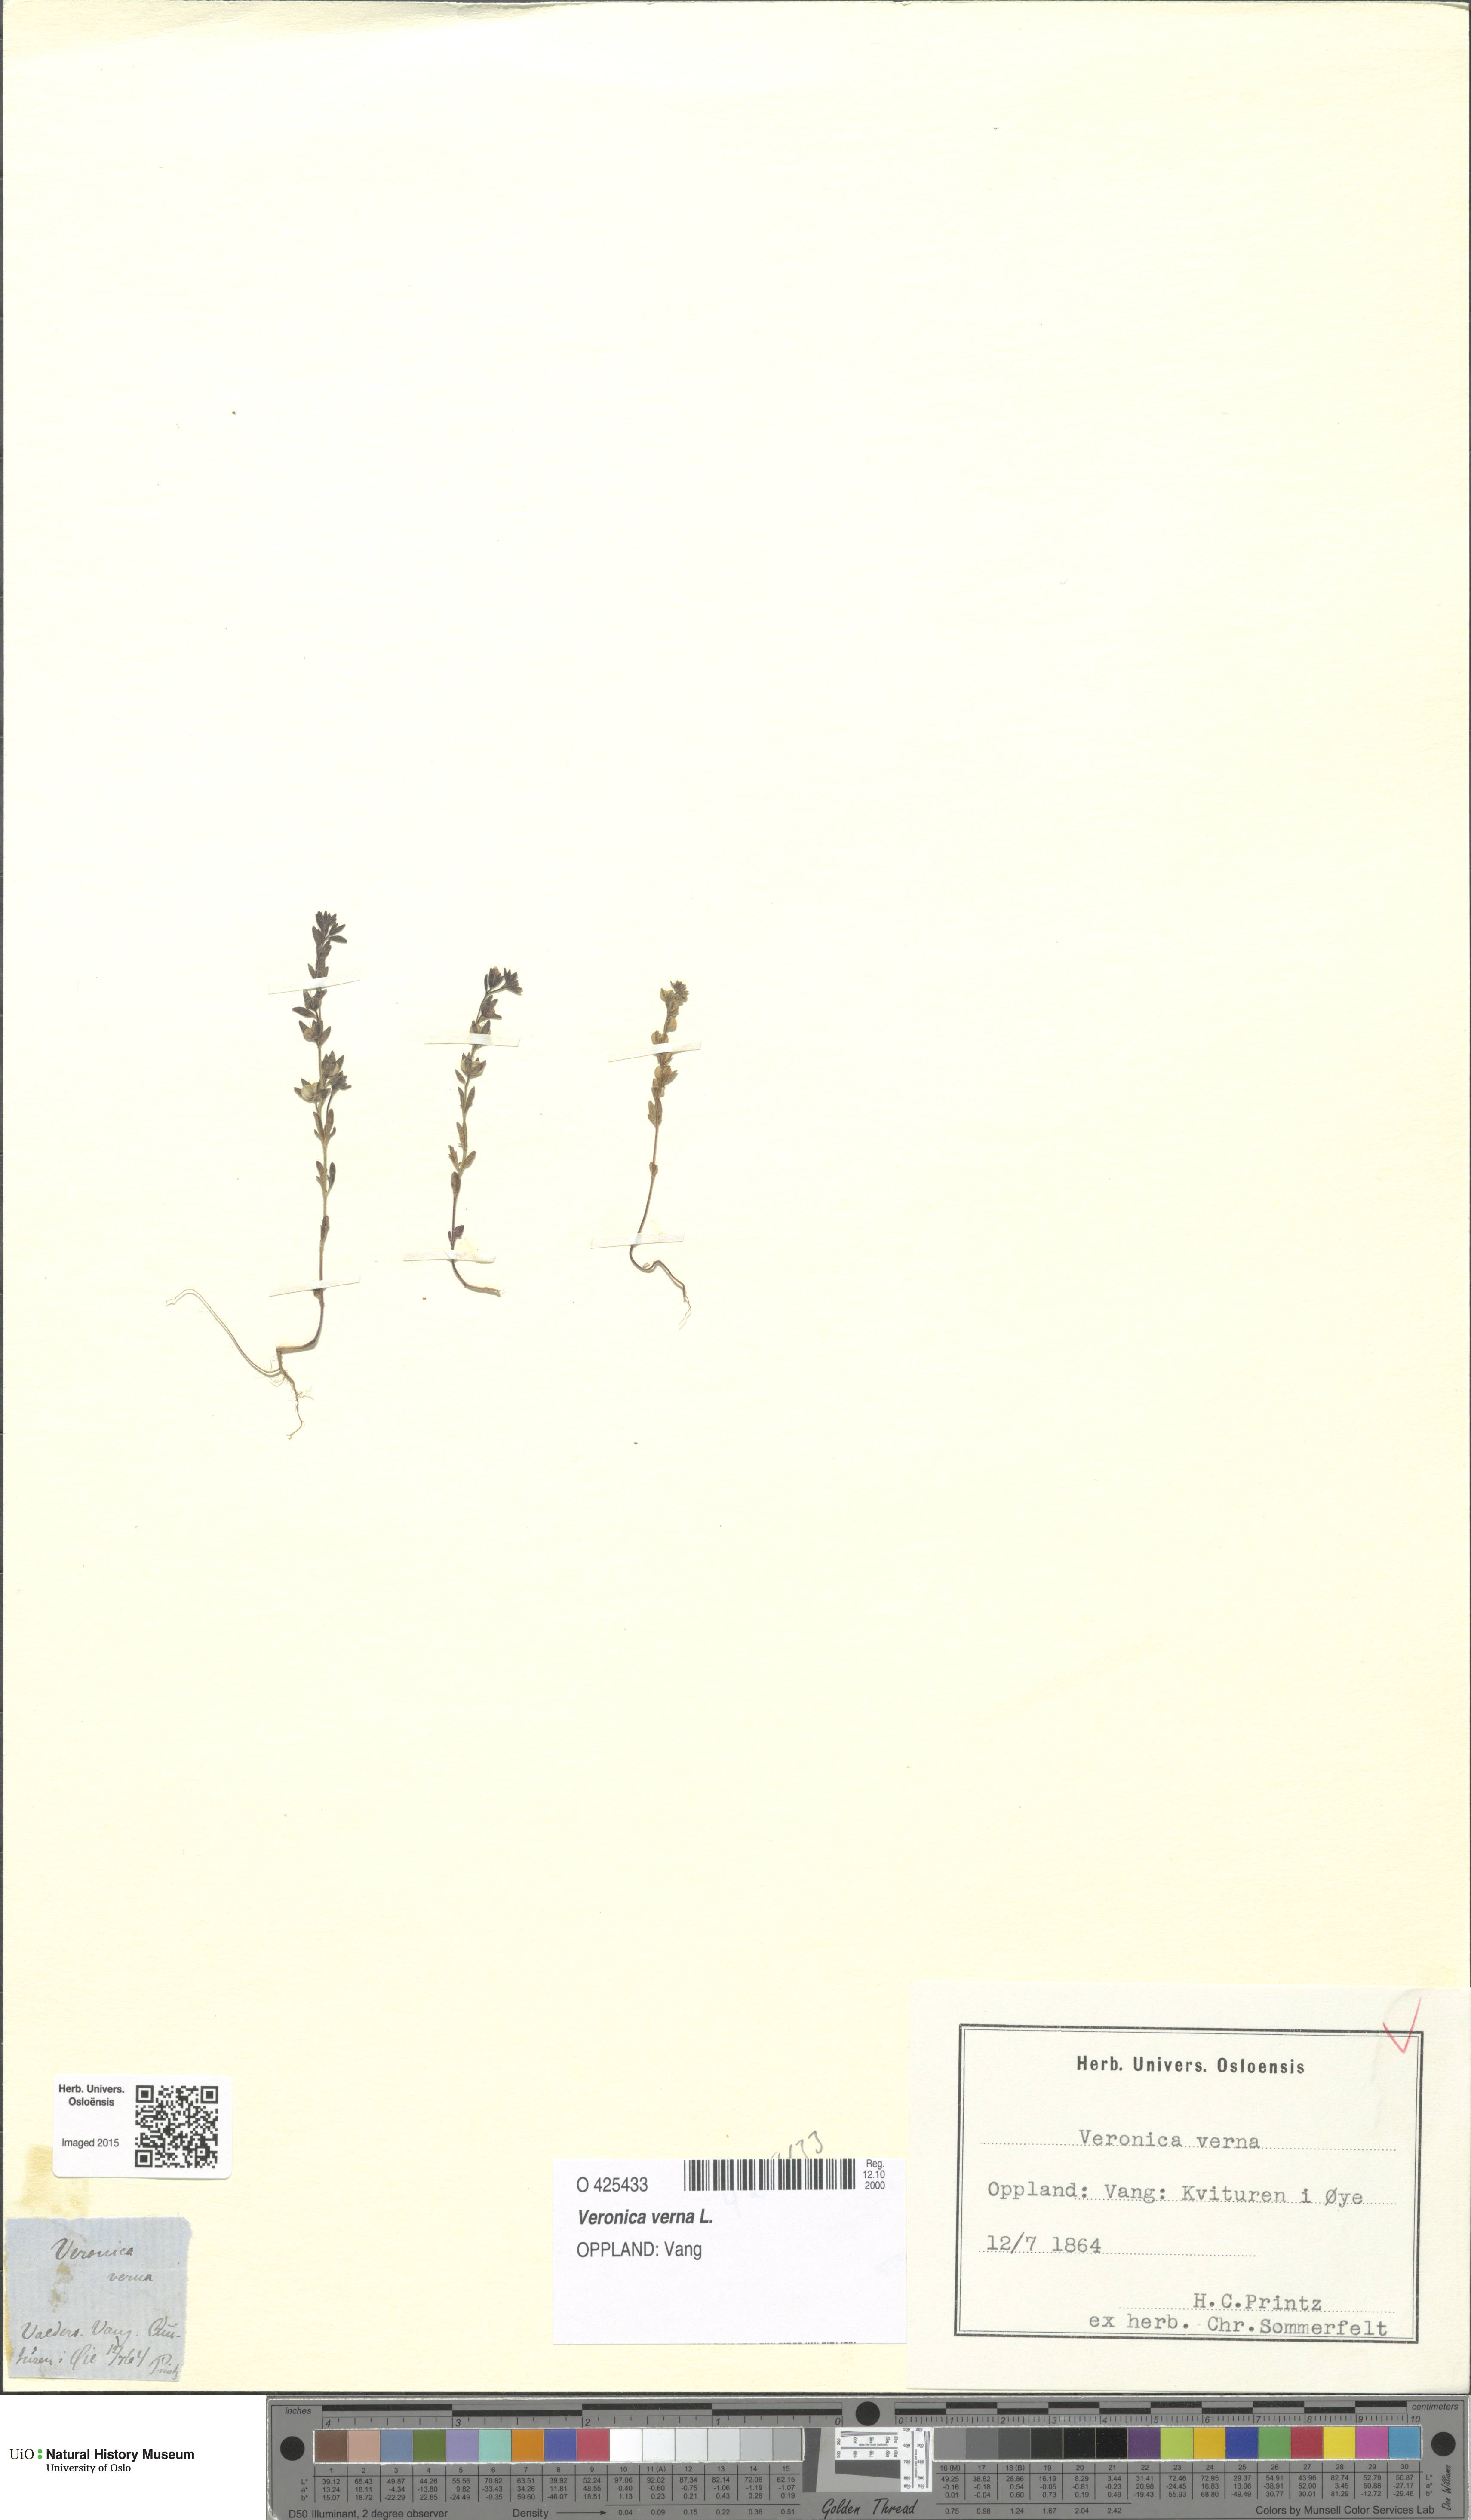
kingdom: Plantae
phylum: Tracheophyta
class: Magnoliopsida
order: Lamiales
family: Plantaginaceae
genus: Veronica
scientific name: Veronica verna
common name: Spring speedwell
